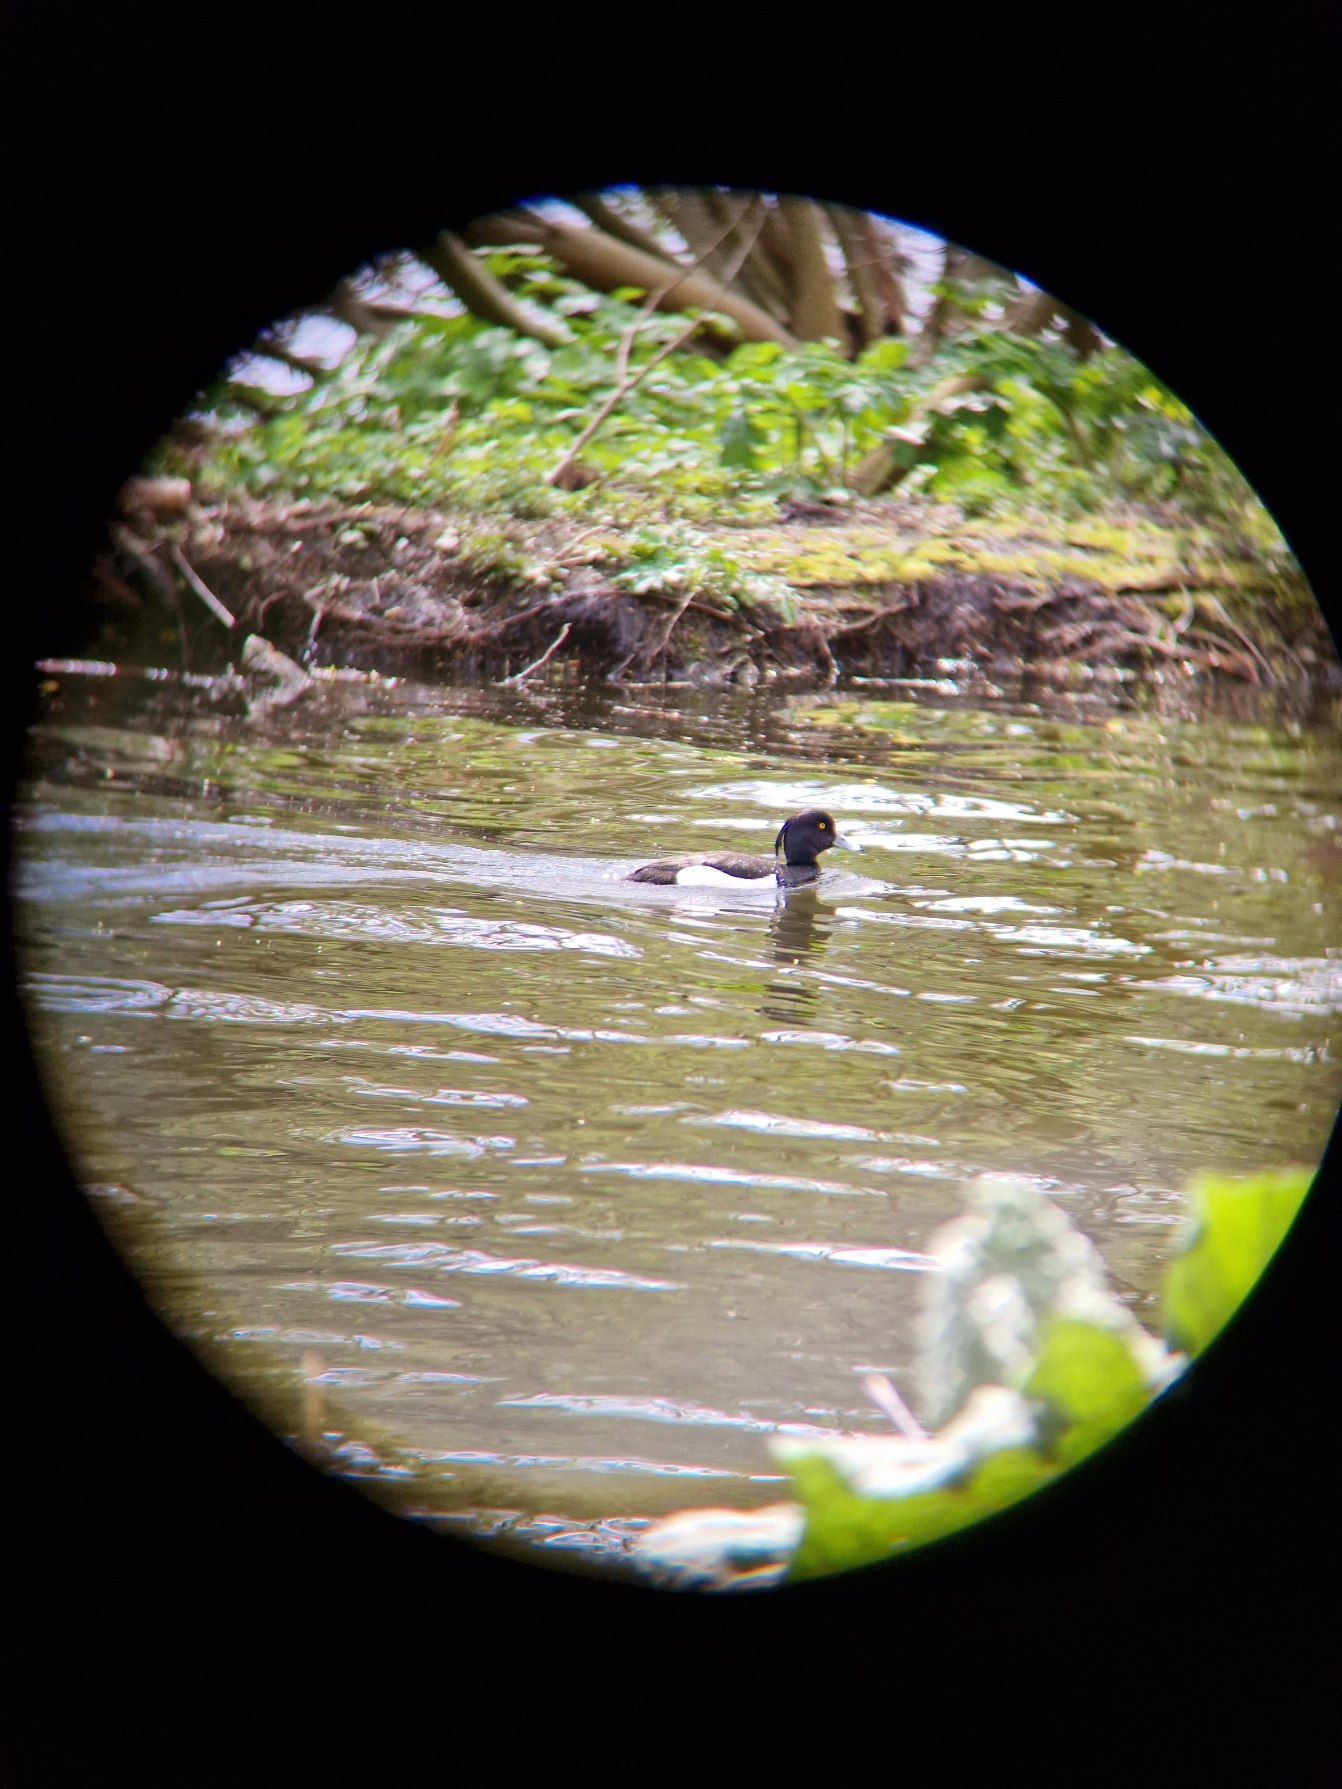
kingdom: Animalia
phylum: Chordata
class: Aves
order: Anseriformes
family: Anatidae
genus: Aythya
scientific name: Aythya fuligula
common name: Troldand
